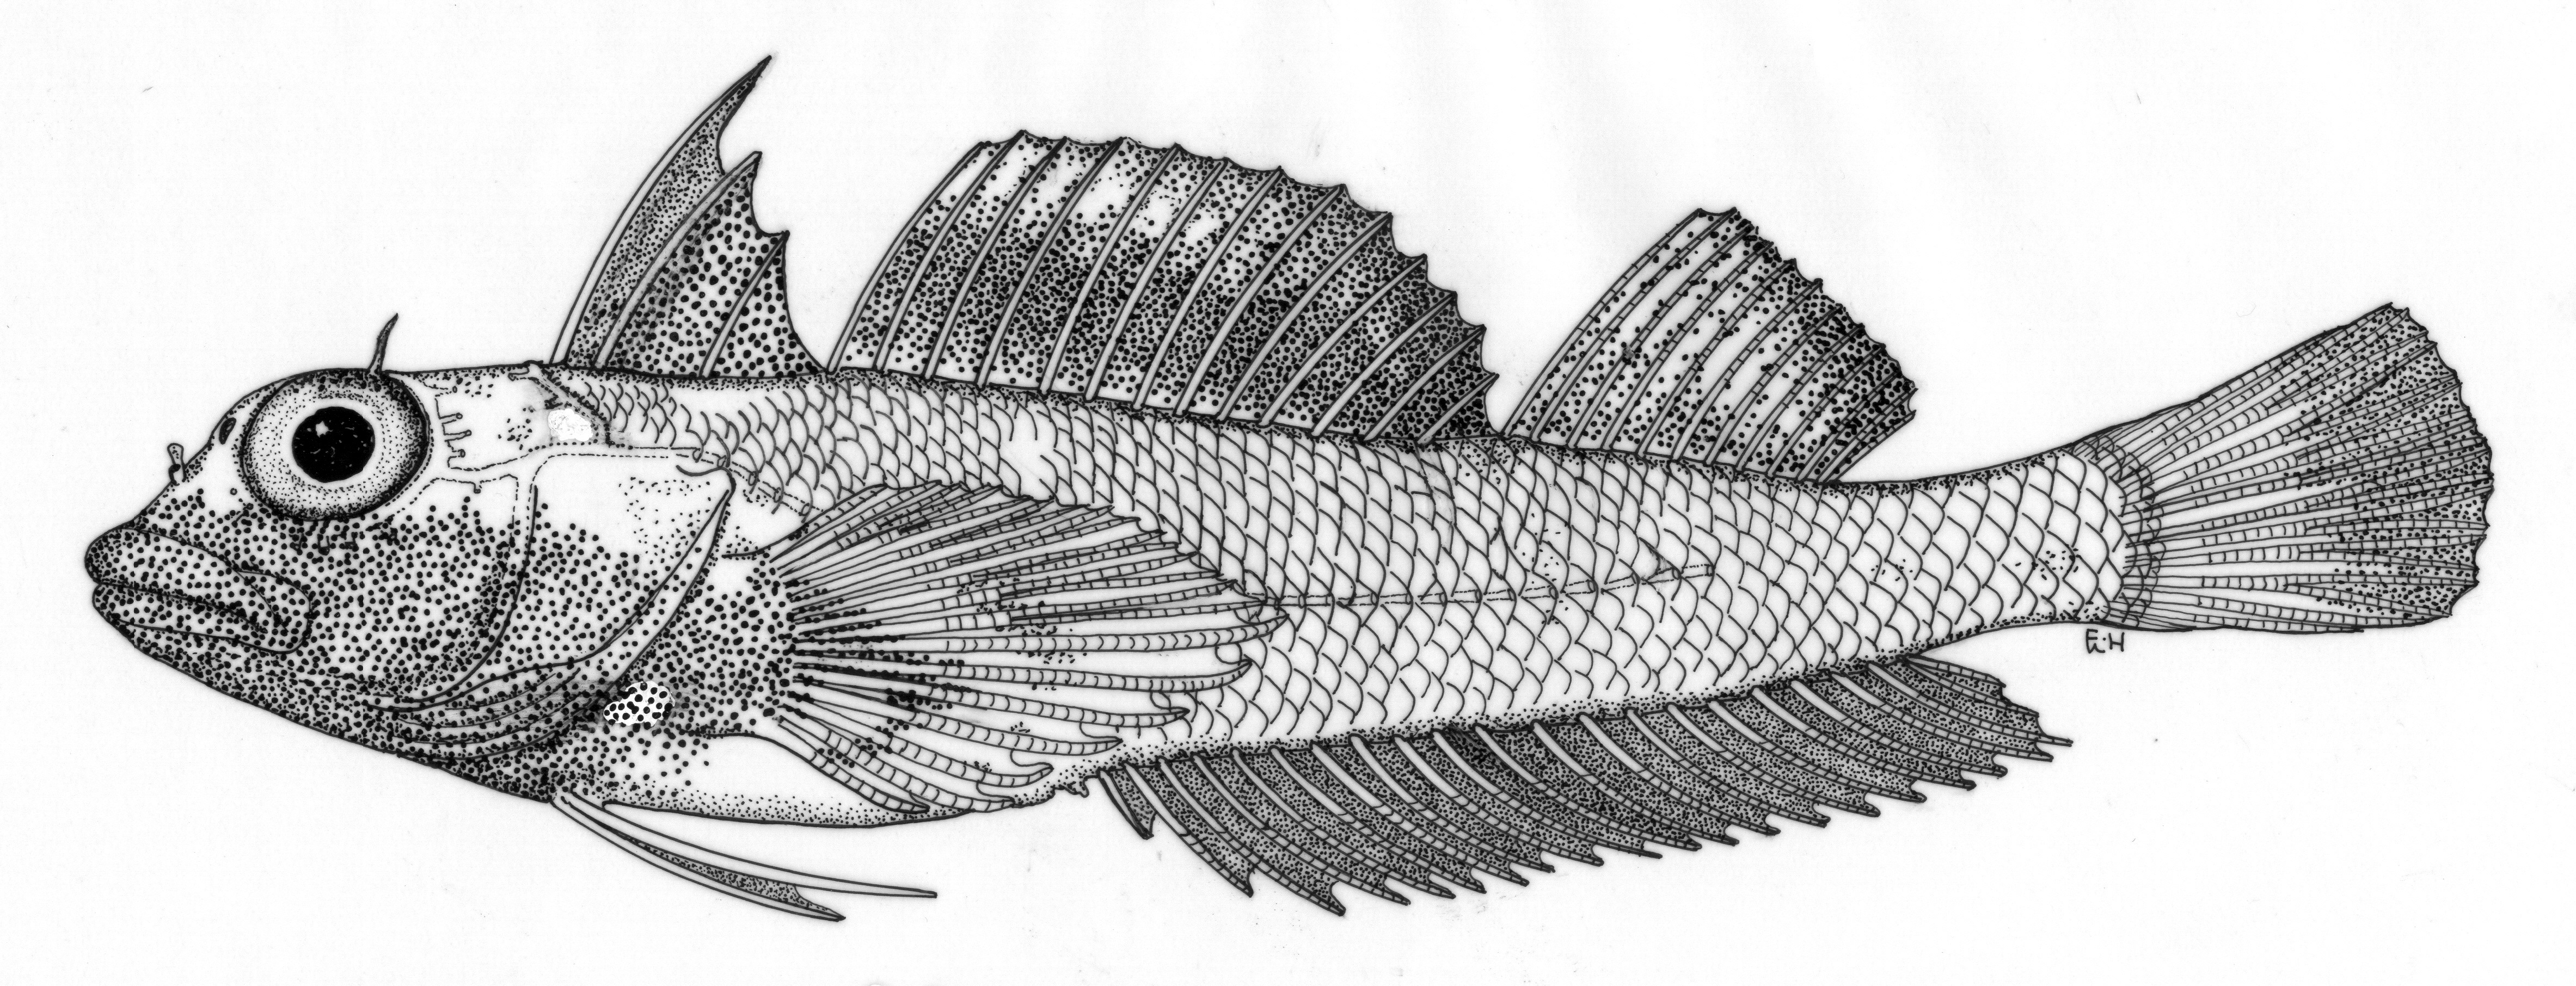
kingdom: Animalia
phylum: Chordata
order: Perciformes
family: Tripterygiidae
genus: Helcogramma
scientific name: Helcogramma microstigma
